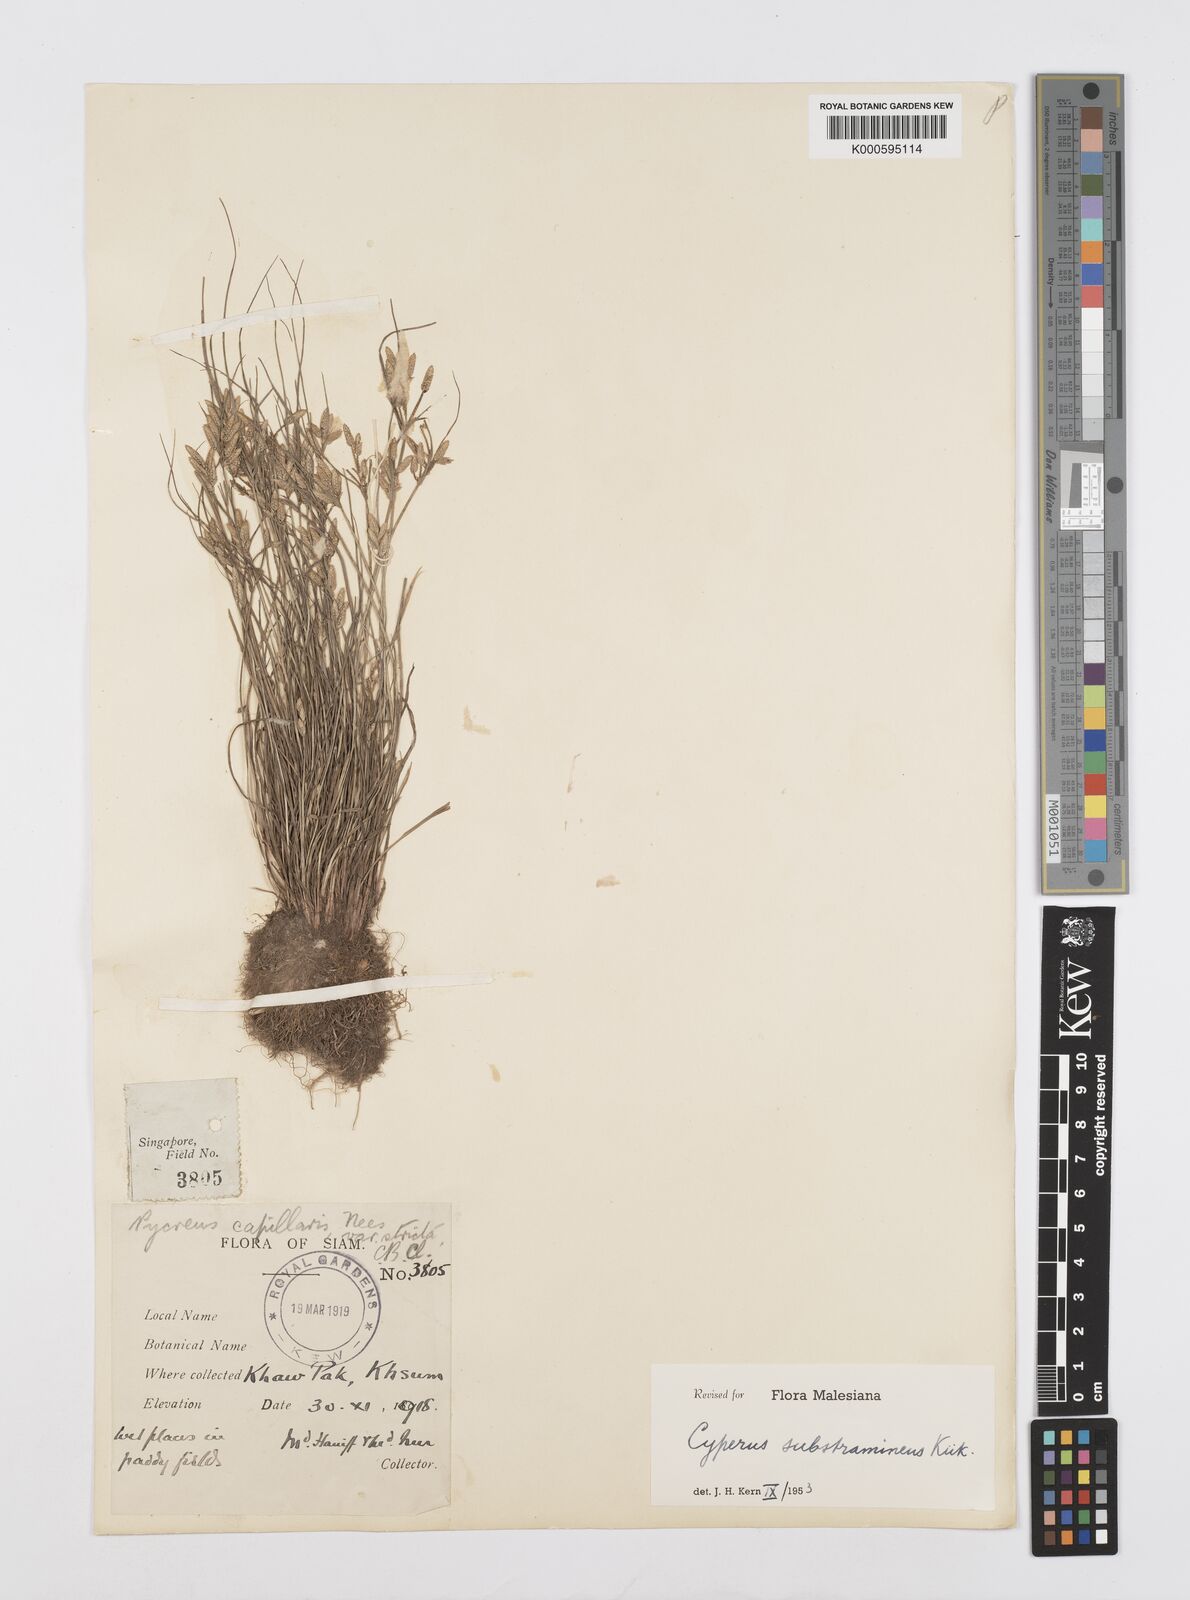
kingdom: Plantae
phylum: Tracheophyta
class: Liliopsida
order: Poales
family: Cyperaceae
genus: Cyperus
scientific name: Cyperus substramineus
